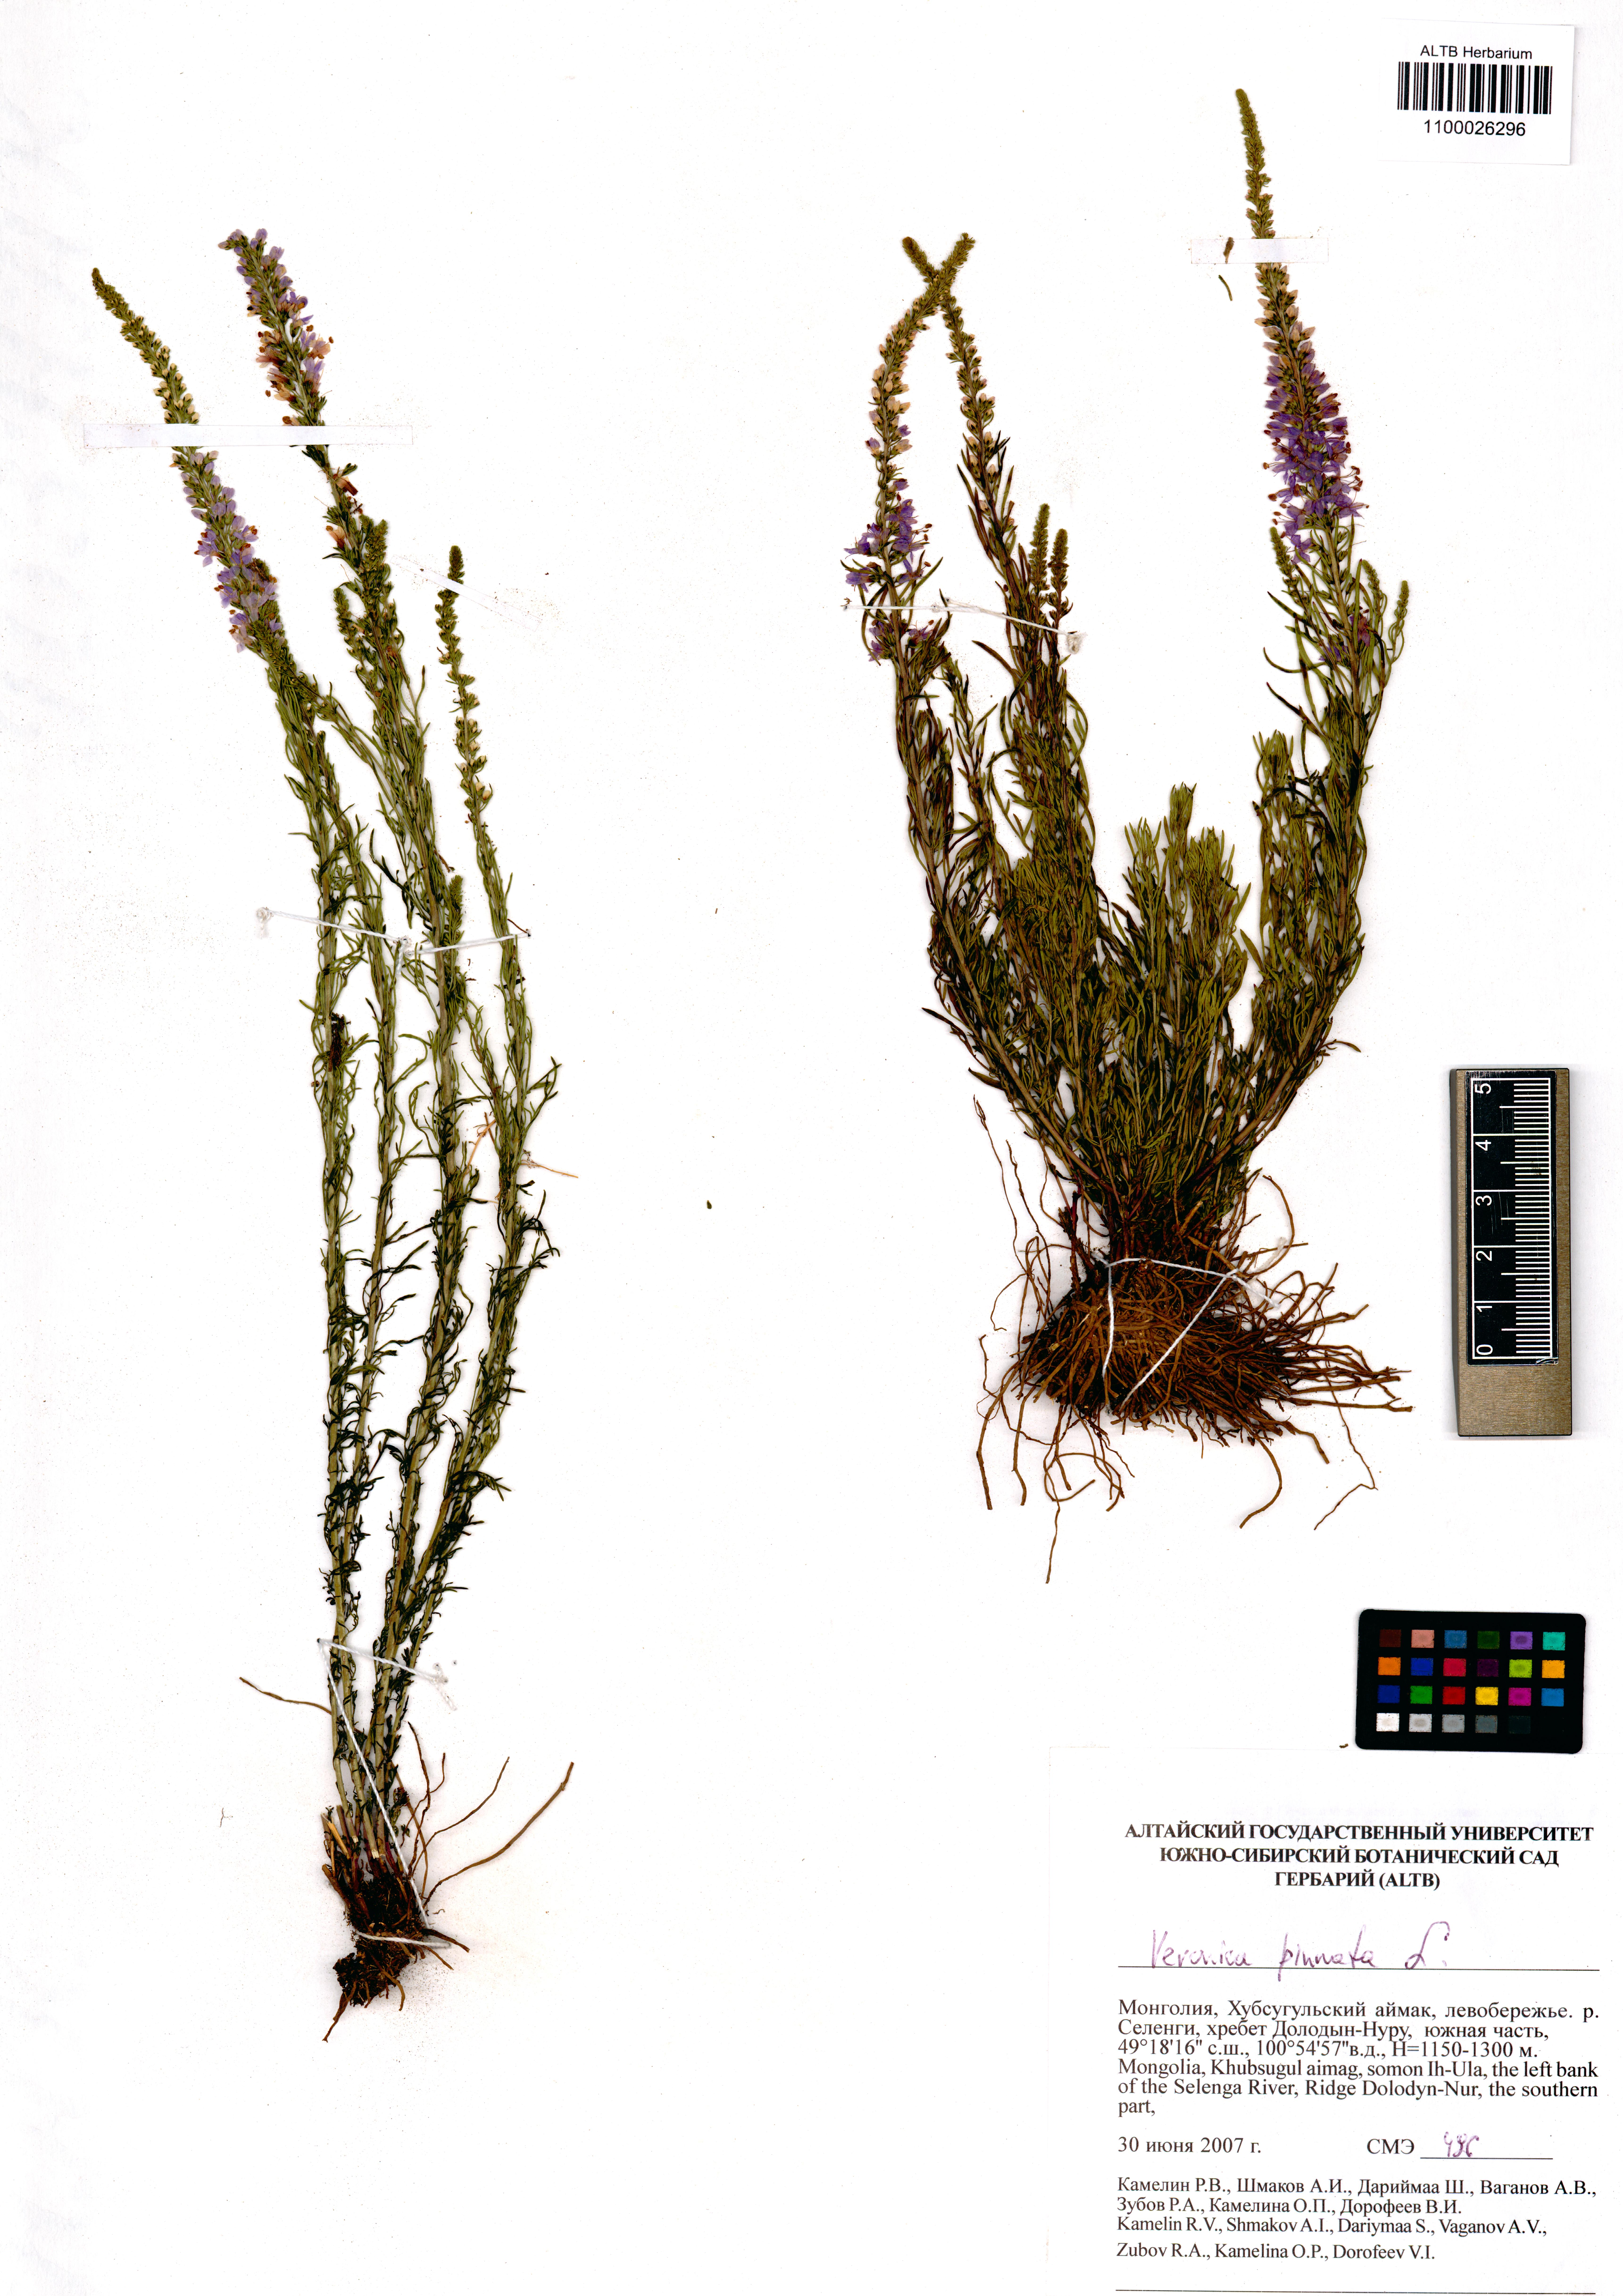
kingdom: Plantae
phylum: Tracheophyta
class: Magnoliopsida
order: Lamiales
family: Plantaginaceae
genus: Veronica
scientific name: Veronica pinnata
